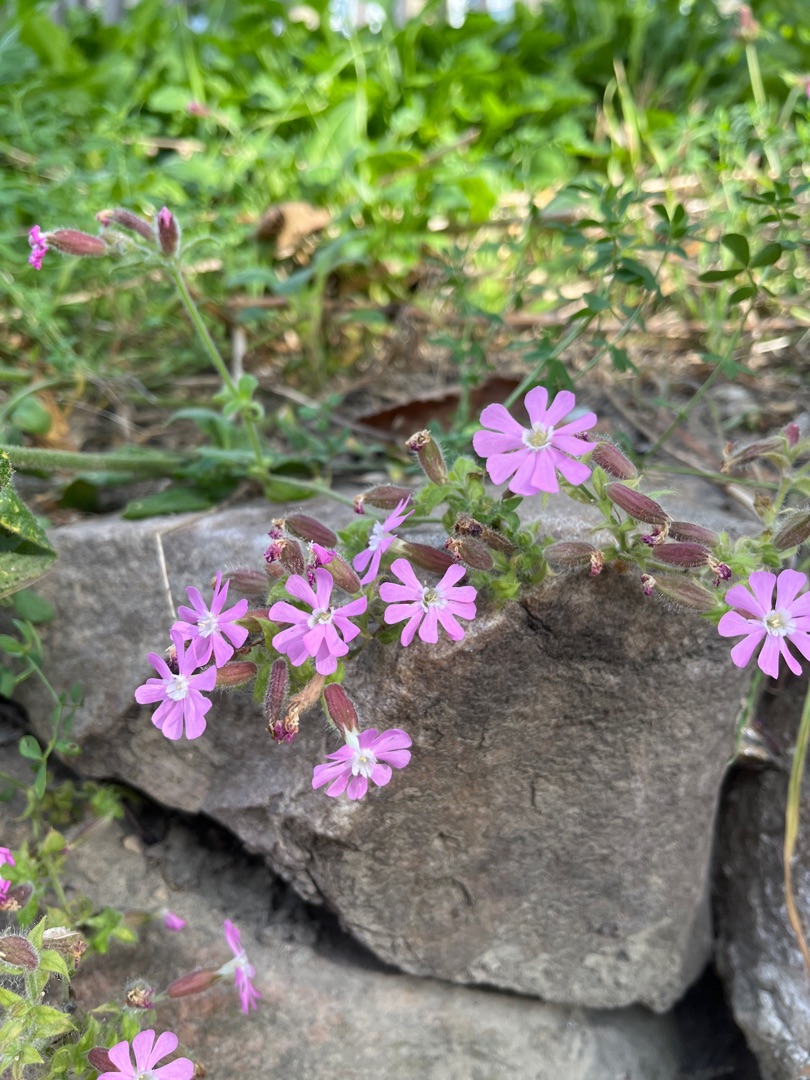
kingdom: Plantae
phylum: Tracheophyta
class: Magnoliopsida
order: Caryophyllales
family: Caryophyllaceae
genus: Silene
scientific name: Silene dioica
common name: Dagpragtstjerne
